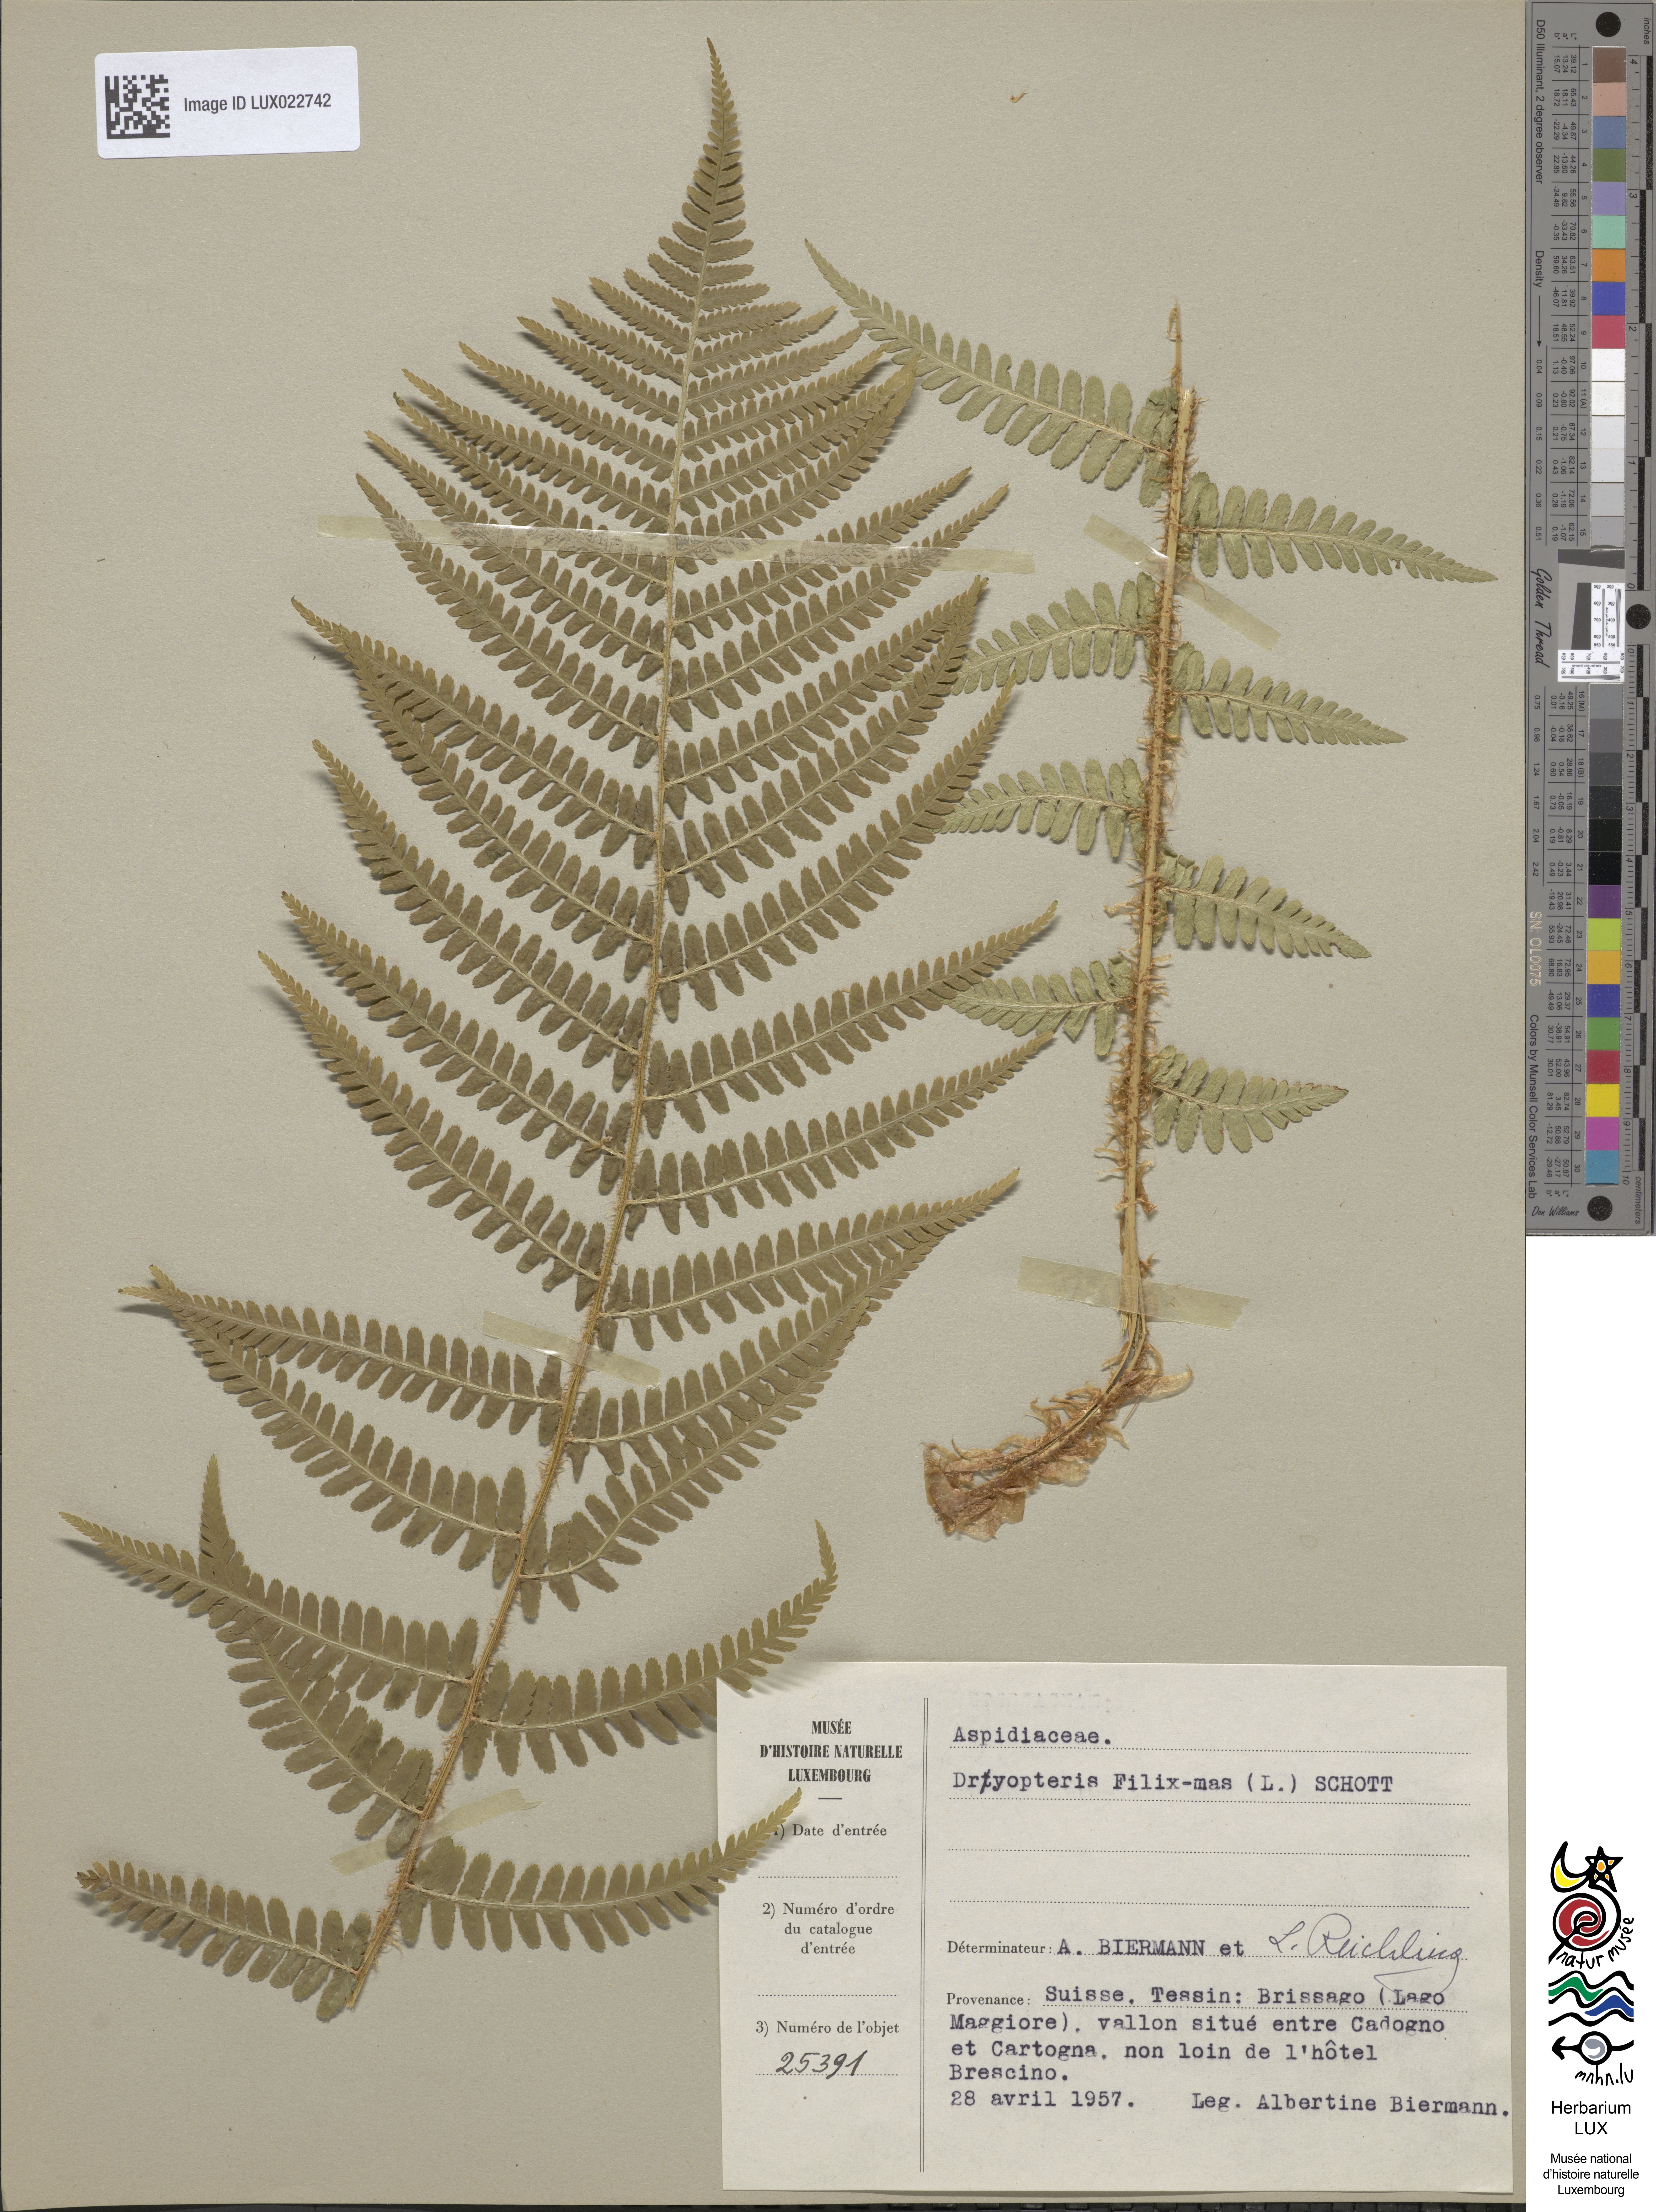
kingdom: Plantae
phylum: Tracheophyta
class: Polypodiopsida
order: Polypodiales
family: Dryopteridaceae
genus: Dryopteris
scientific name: Dryopteris filix-mas
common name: Male fern
